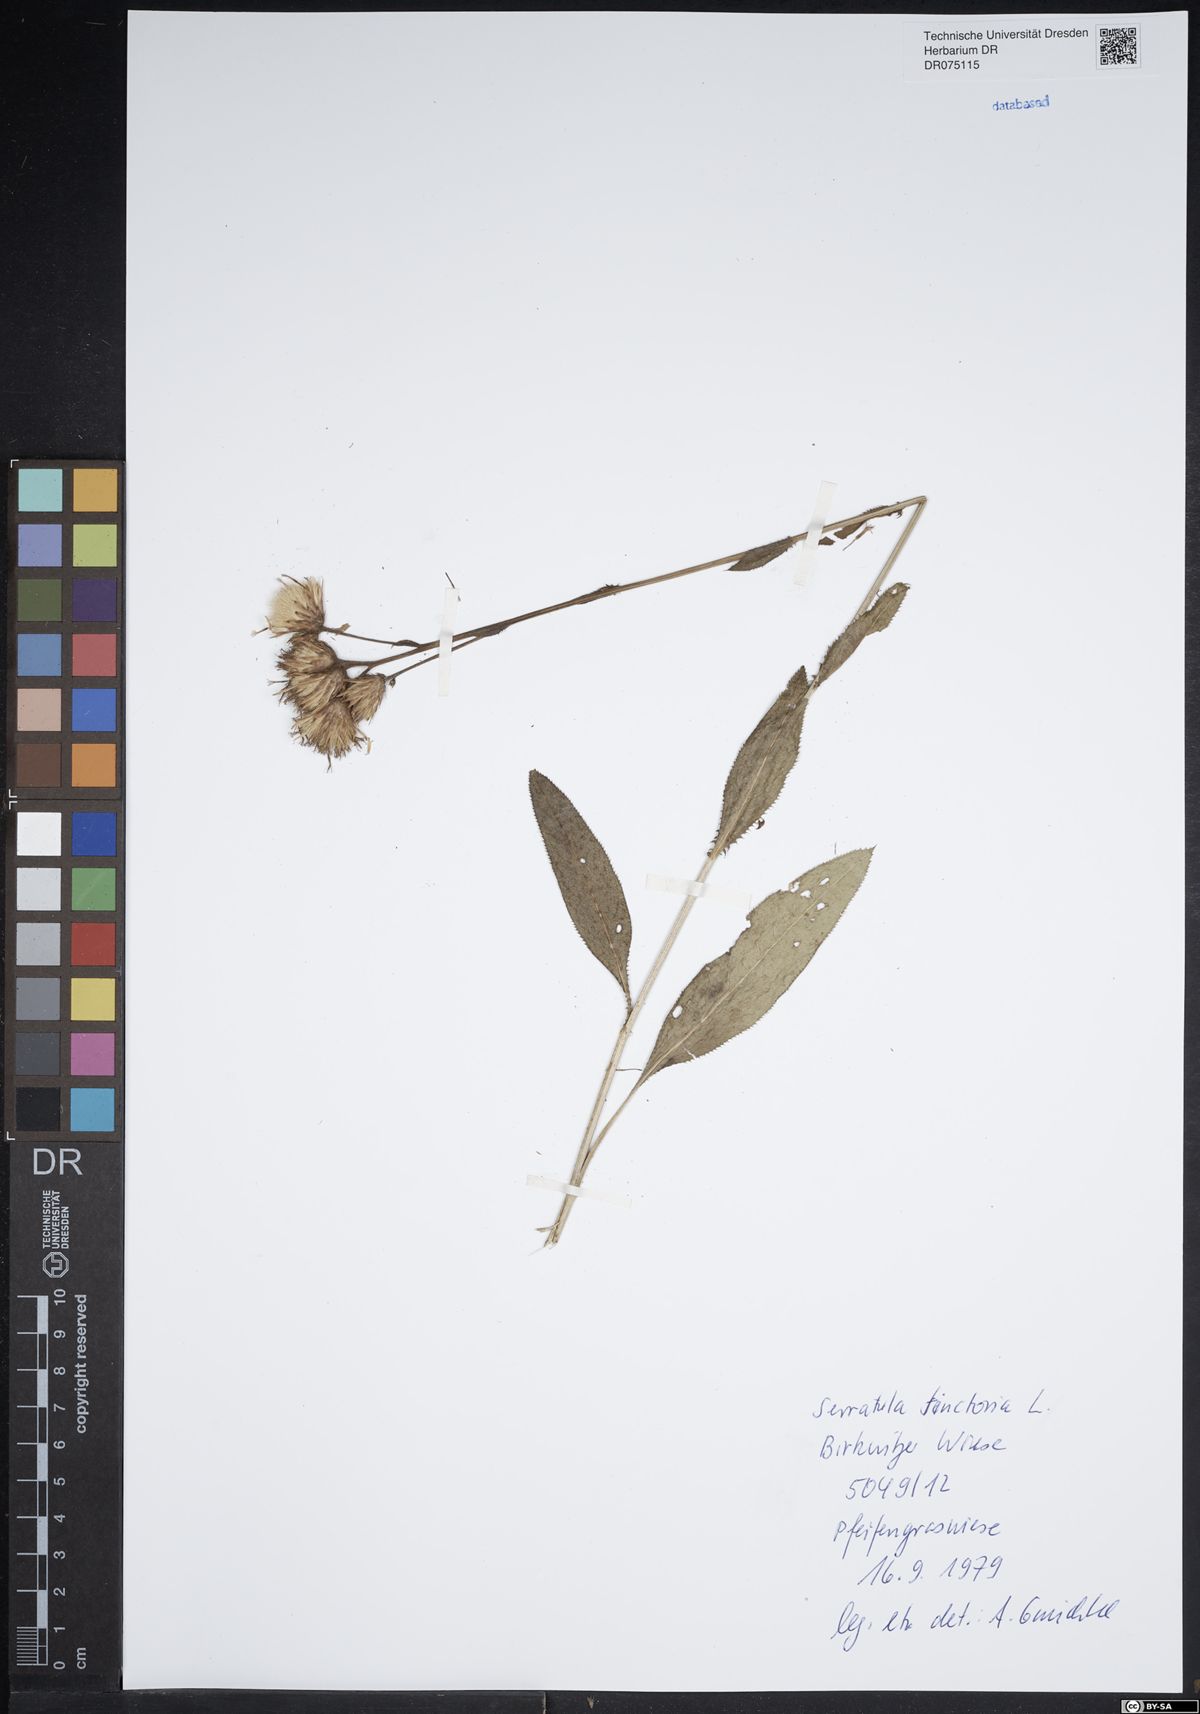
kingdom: Plantae
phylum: Tracheophyta
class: Magnoliopsida
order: Asterales
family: Asteraceae
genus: Serratula
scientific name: Serratula tinctoria
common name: Saw-wort
